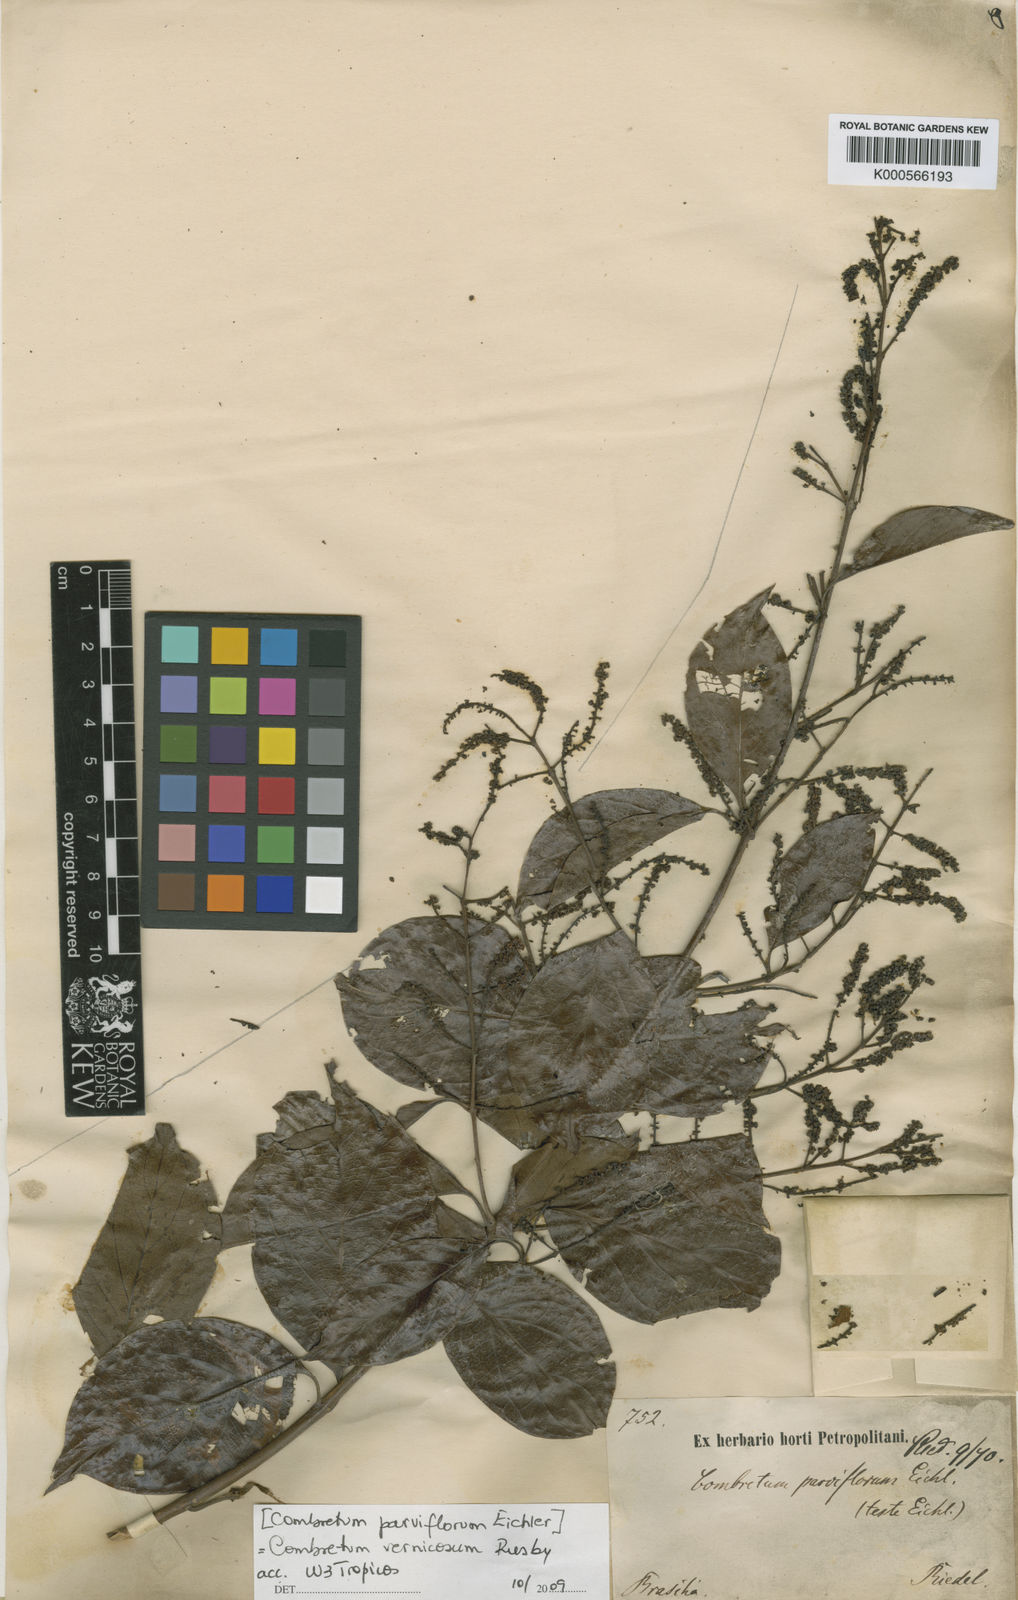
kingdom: Plantae
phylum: Tracheophyta
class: Magnoliopsida
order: Myrtales
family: Combretaceae
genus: Combretum
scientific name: Combretum vernicosum
